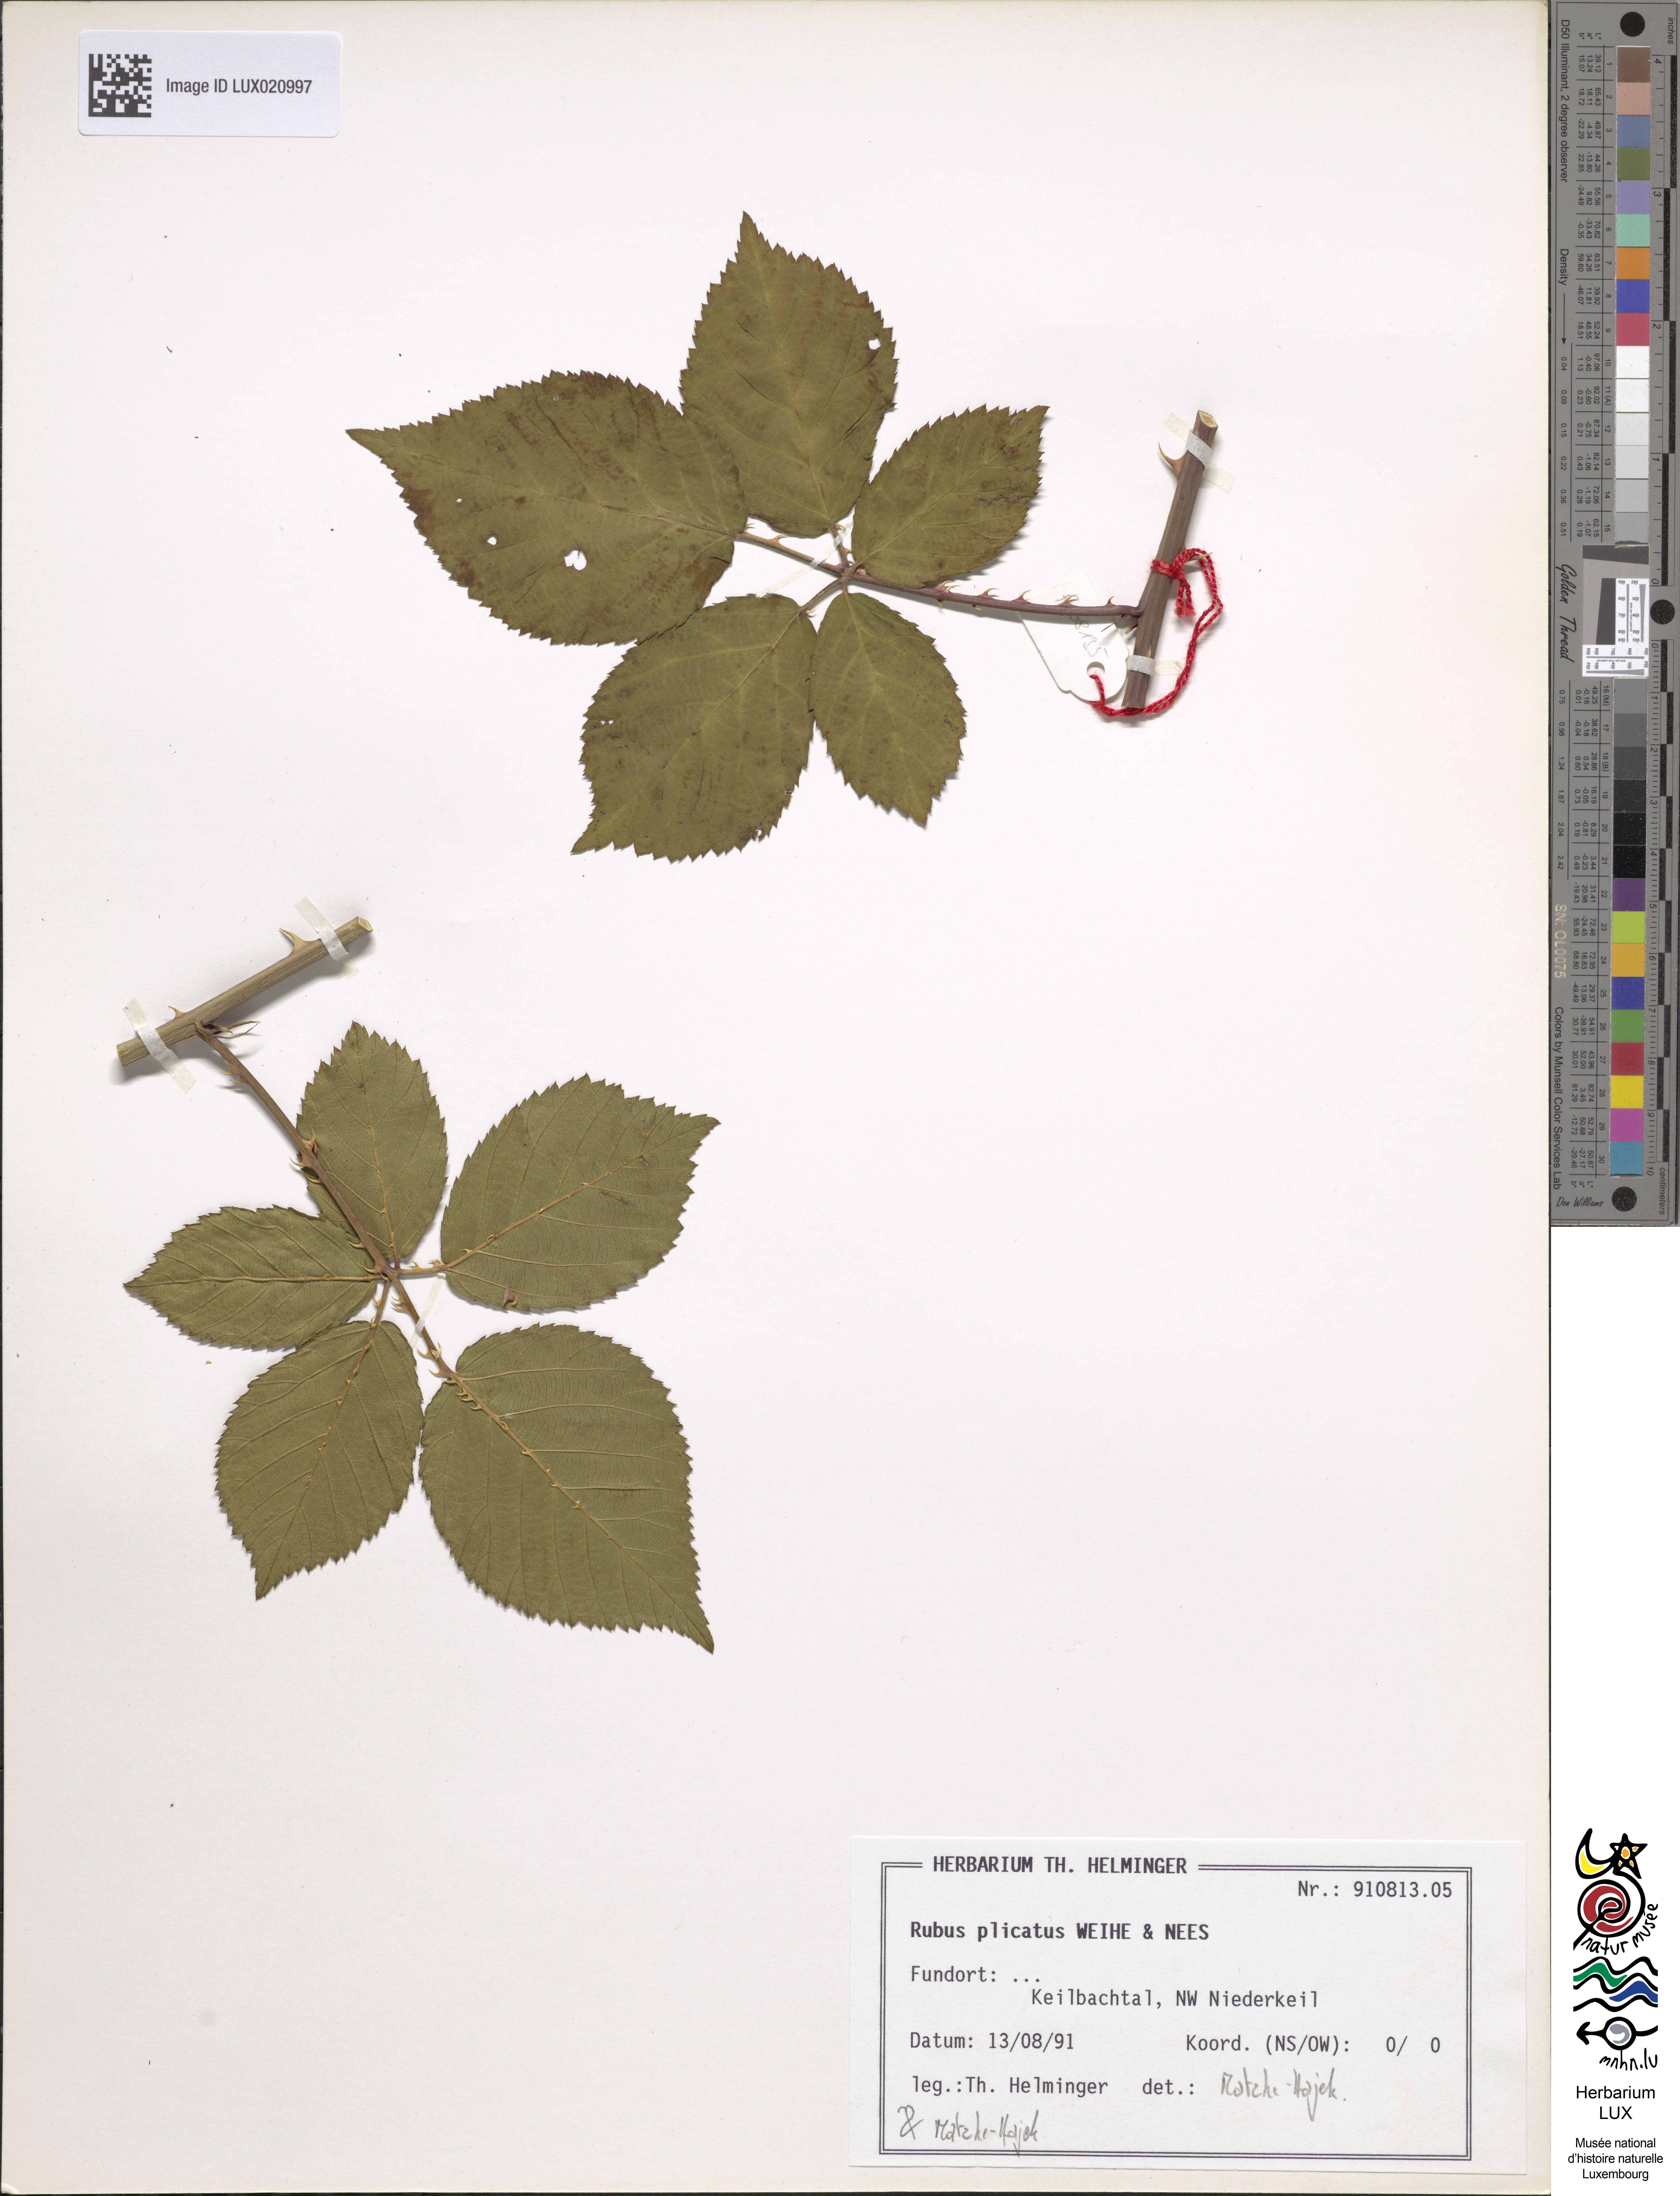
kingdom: Plantae
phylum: Tracheophyta
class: Magnoliopsida
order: Rosales
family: Rosaceae
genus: Rubus
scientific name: Rubus plicatus
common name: Plaited-leaved bramble
